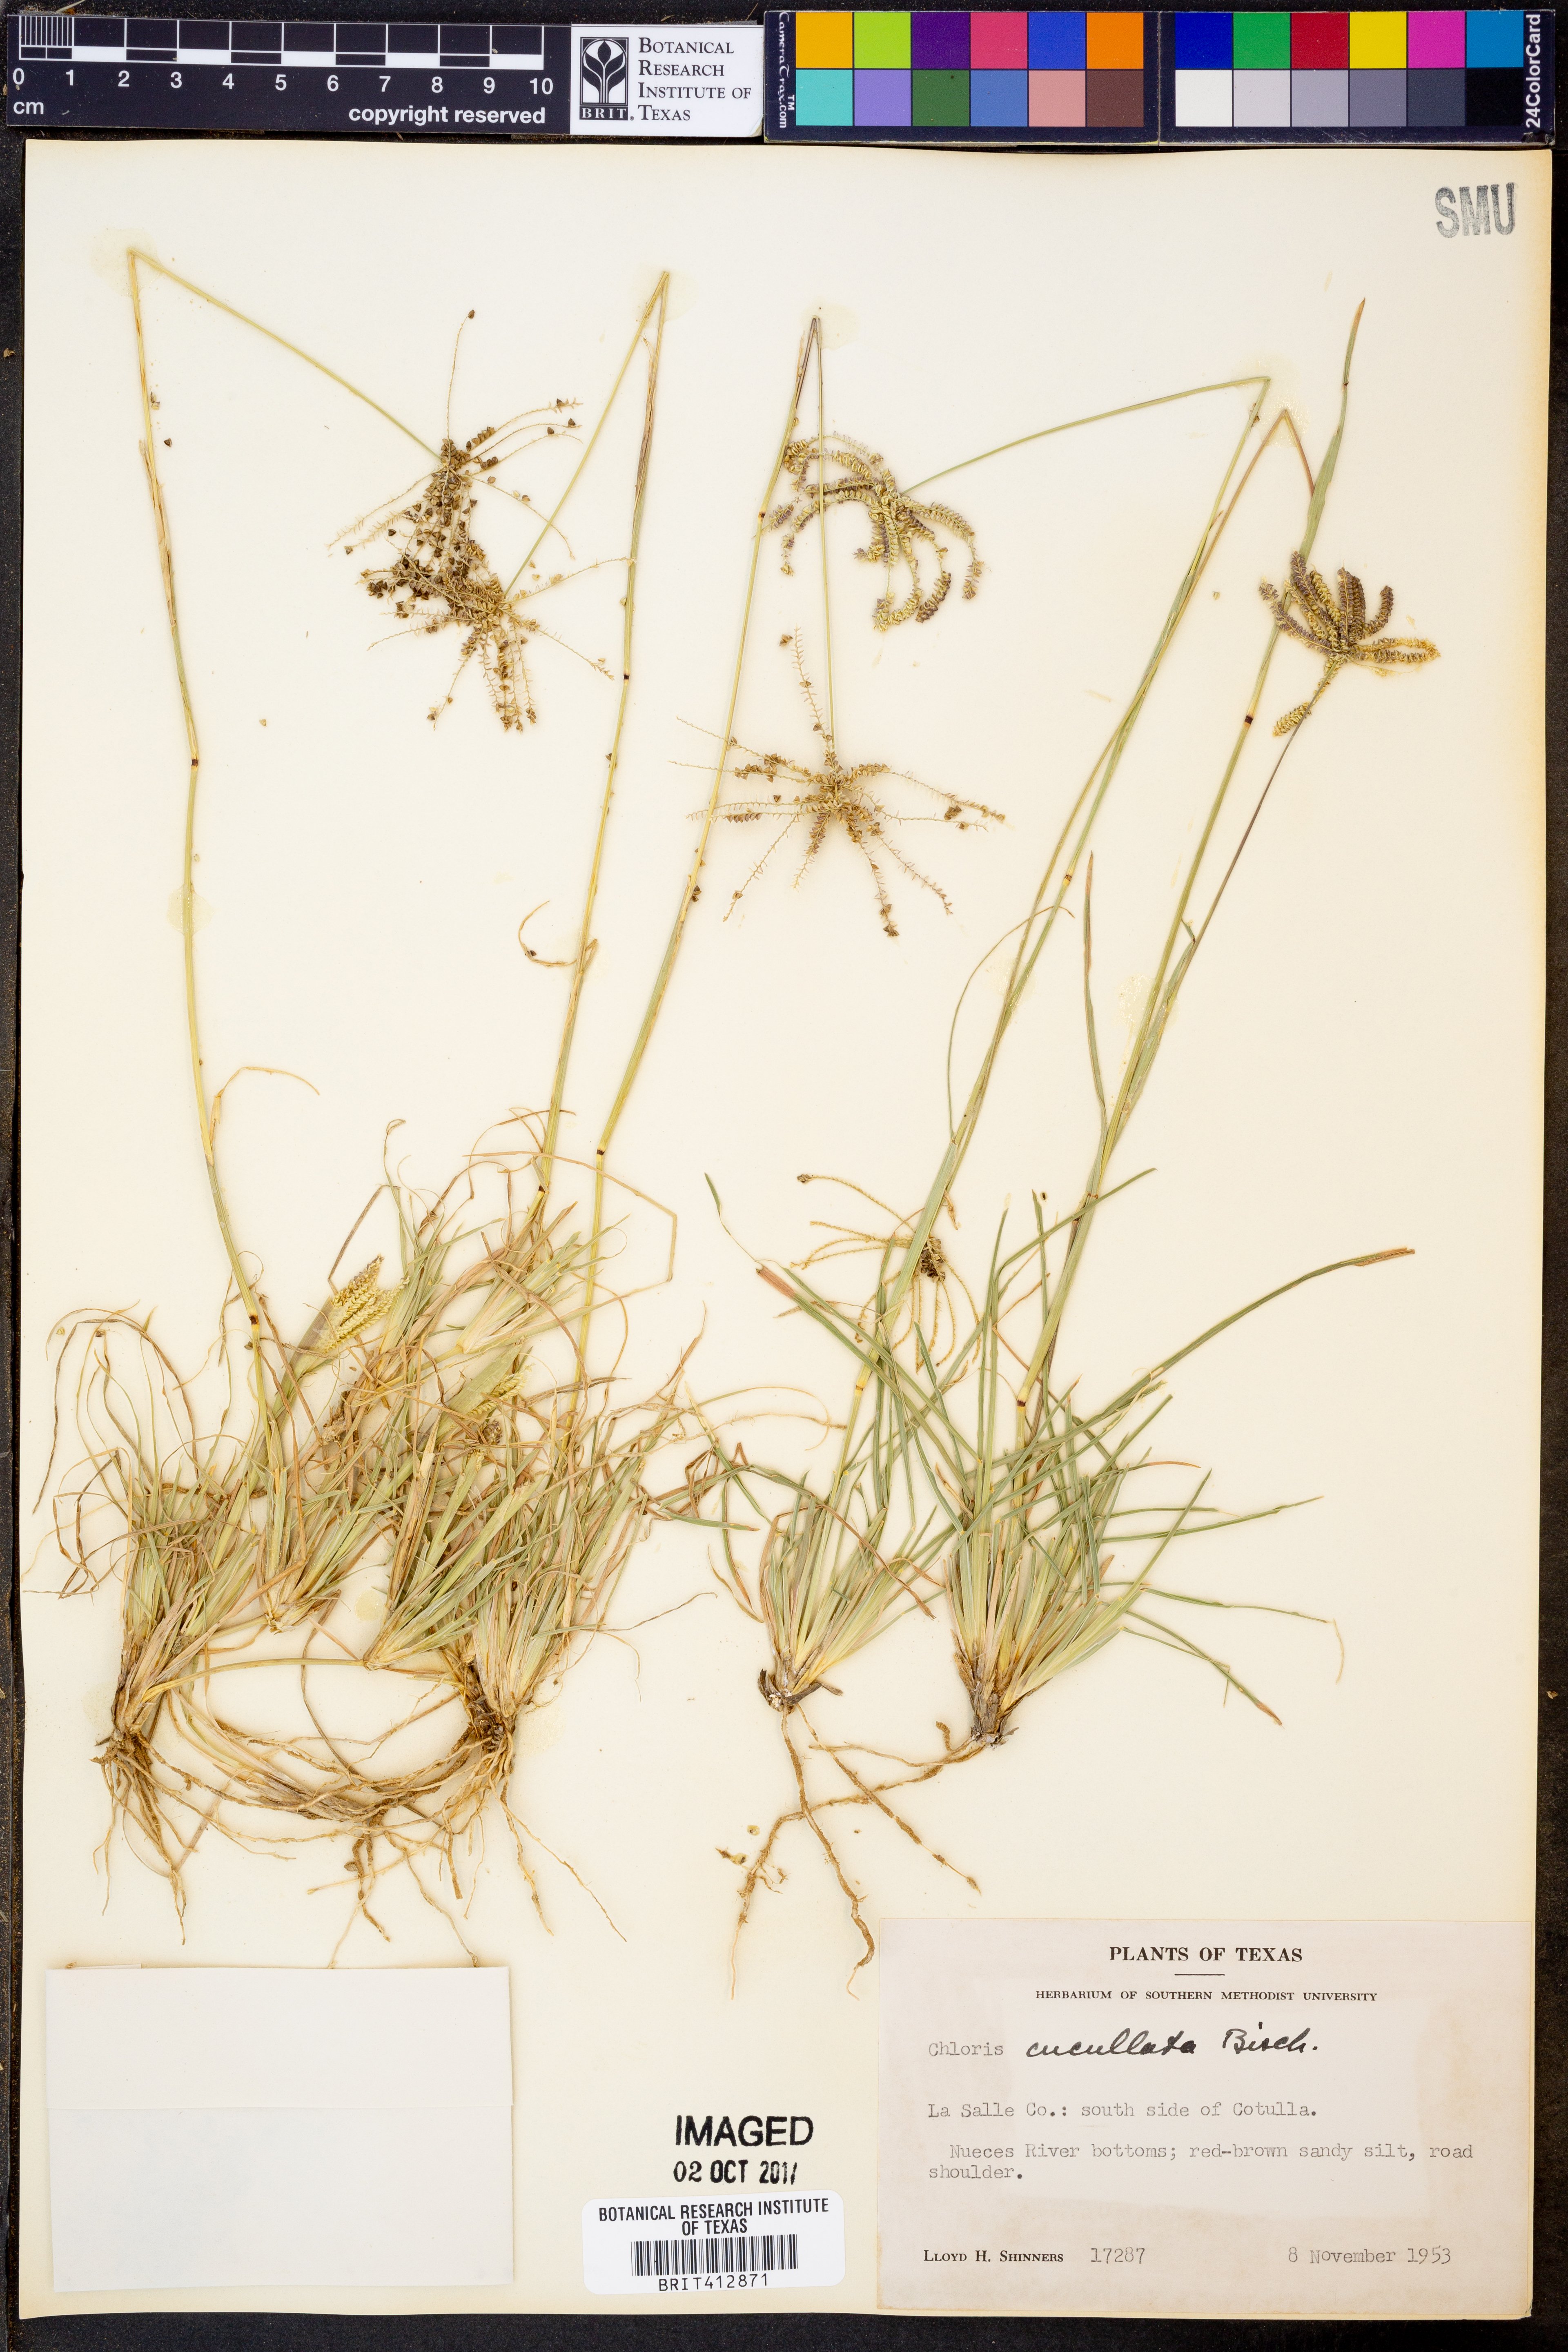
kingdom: Plantae
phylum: Tracheophyta
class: Liliopsida
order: Poales
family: Poaceae
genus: Chloris
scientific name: Chloris cucullata
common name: Hooded windmill grass
